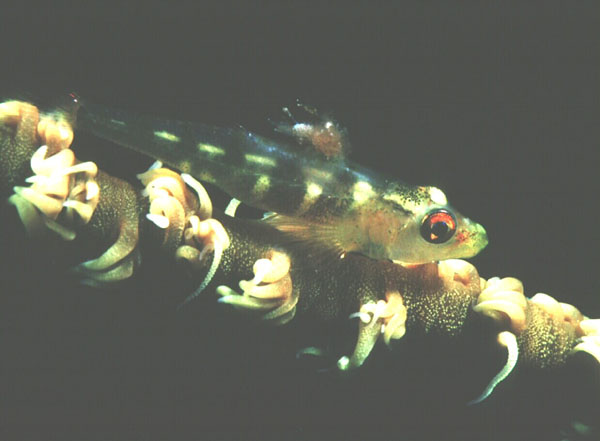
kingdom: Animalia
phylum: Chordata
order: Perciformes
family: Gobiidae
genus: Bryaninops
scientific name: Bryaninops yongei
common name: Whip coral goby
